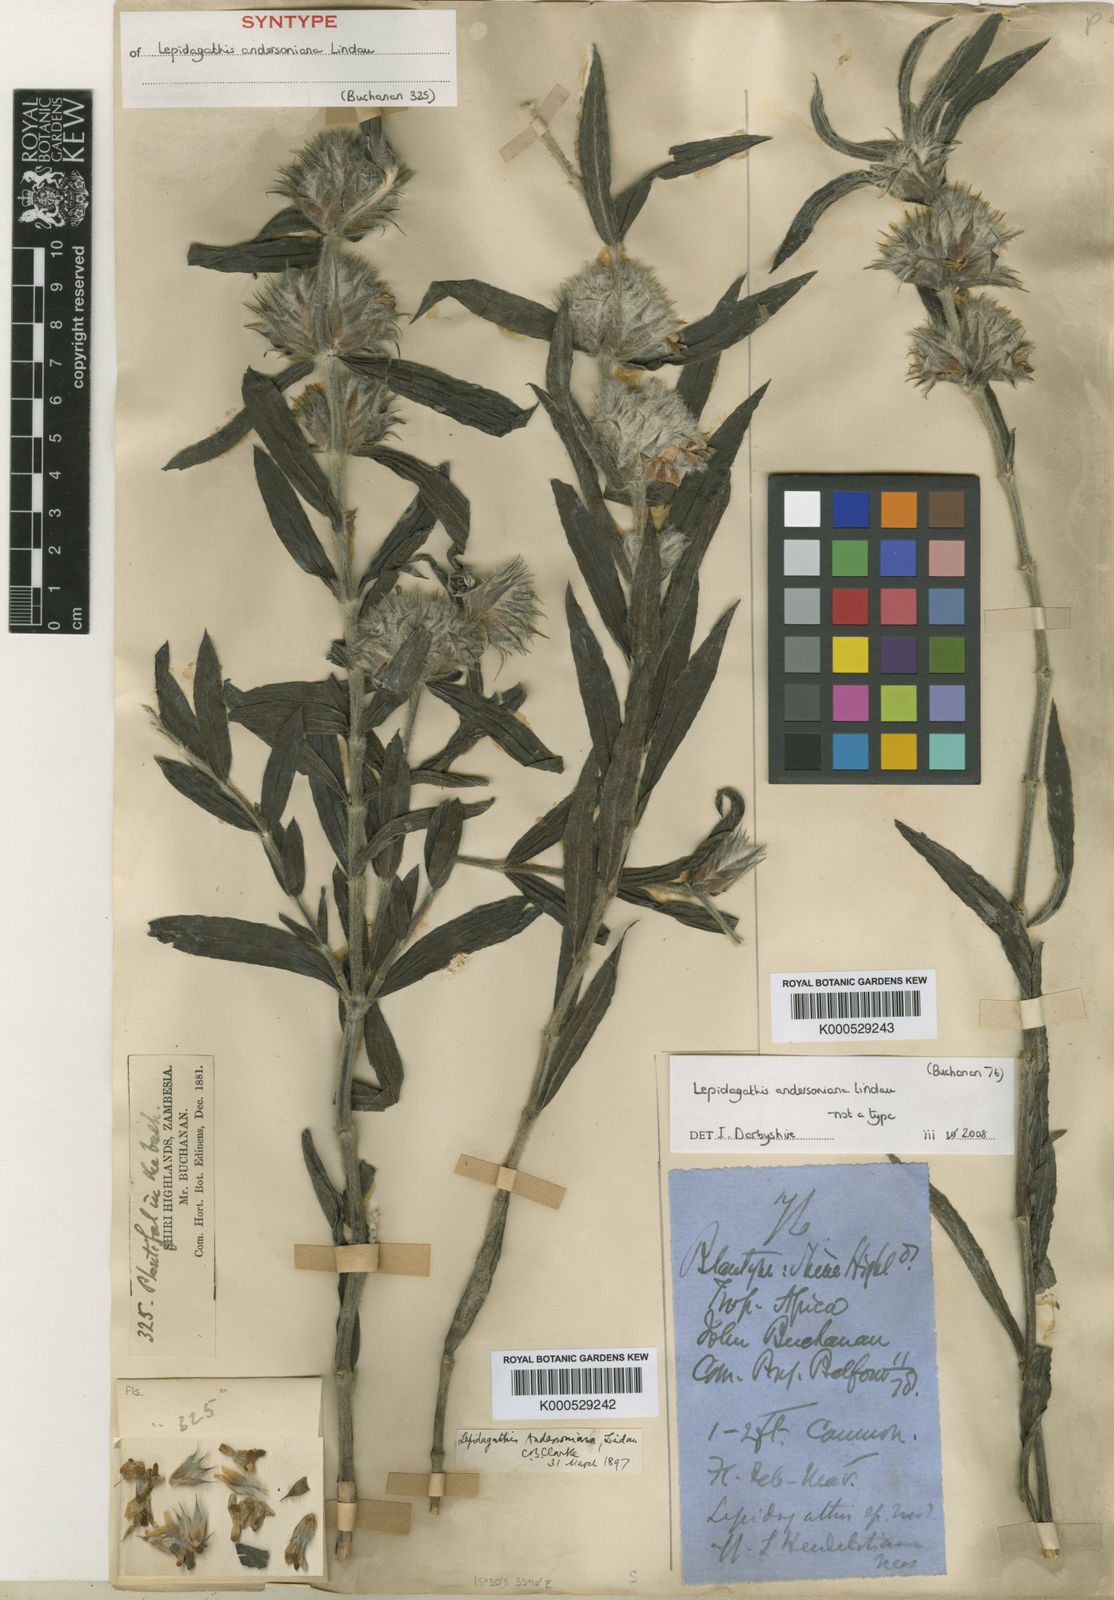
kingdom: Plantae
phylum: Tracheophyta
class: Magnoliopsida
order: Lamiales
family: Acanthaceae
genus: Lepidagathis
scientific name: Lepidagathis andersoniana
